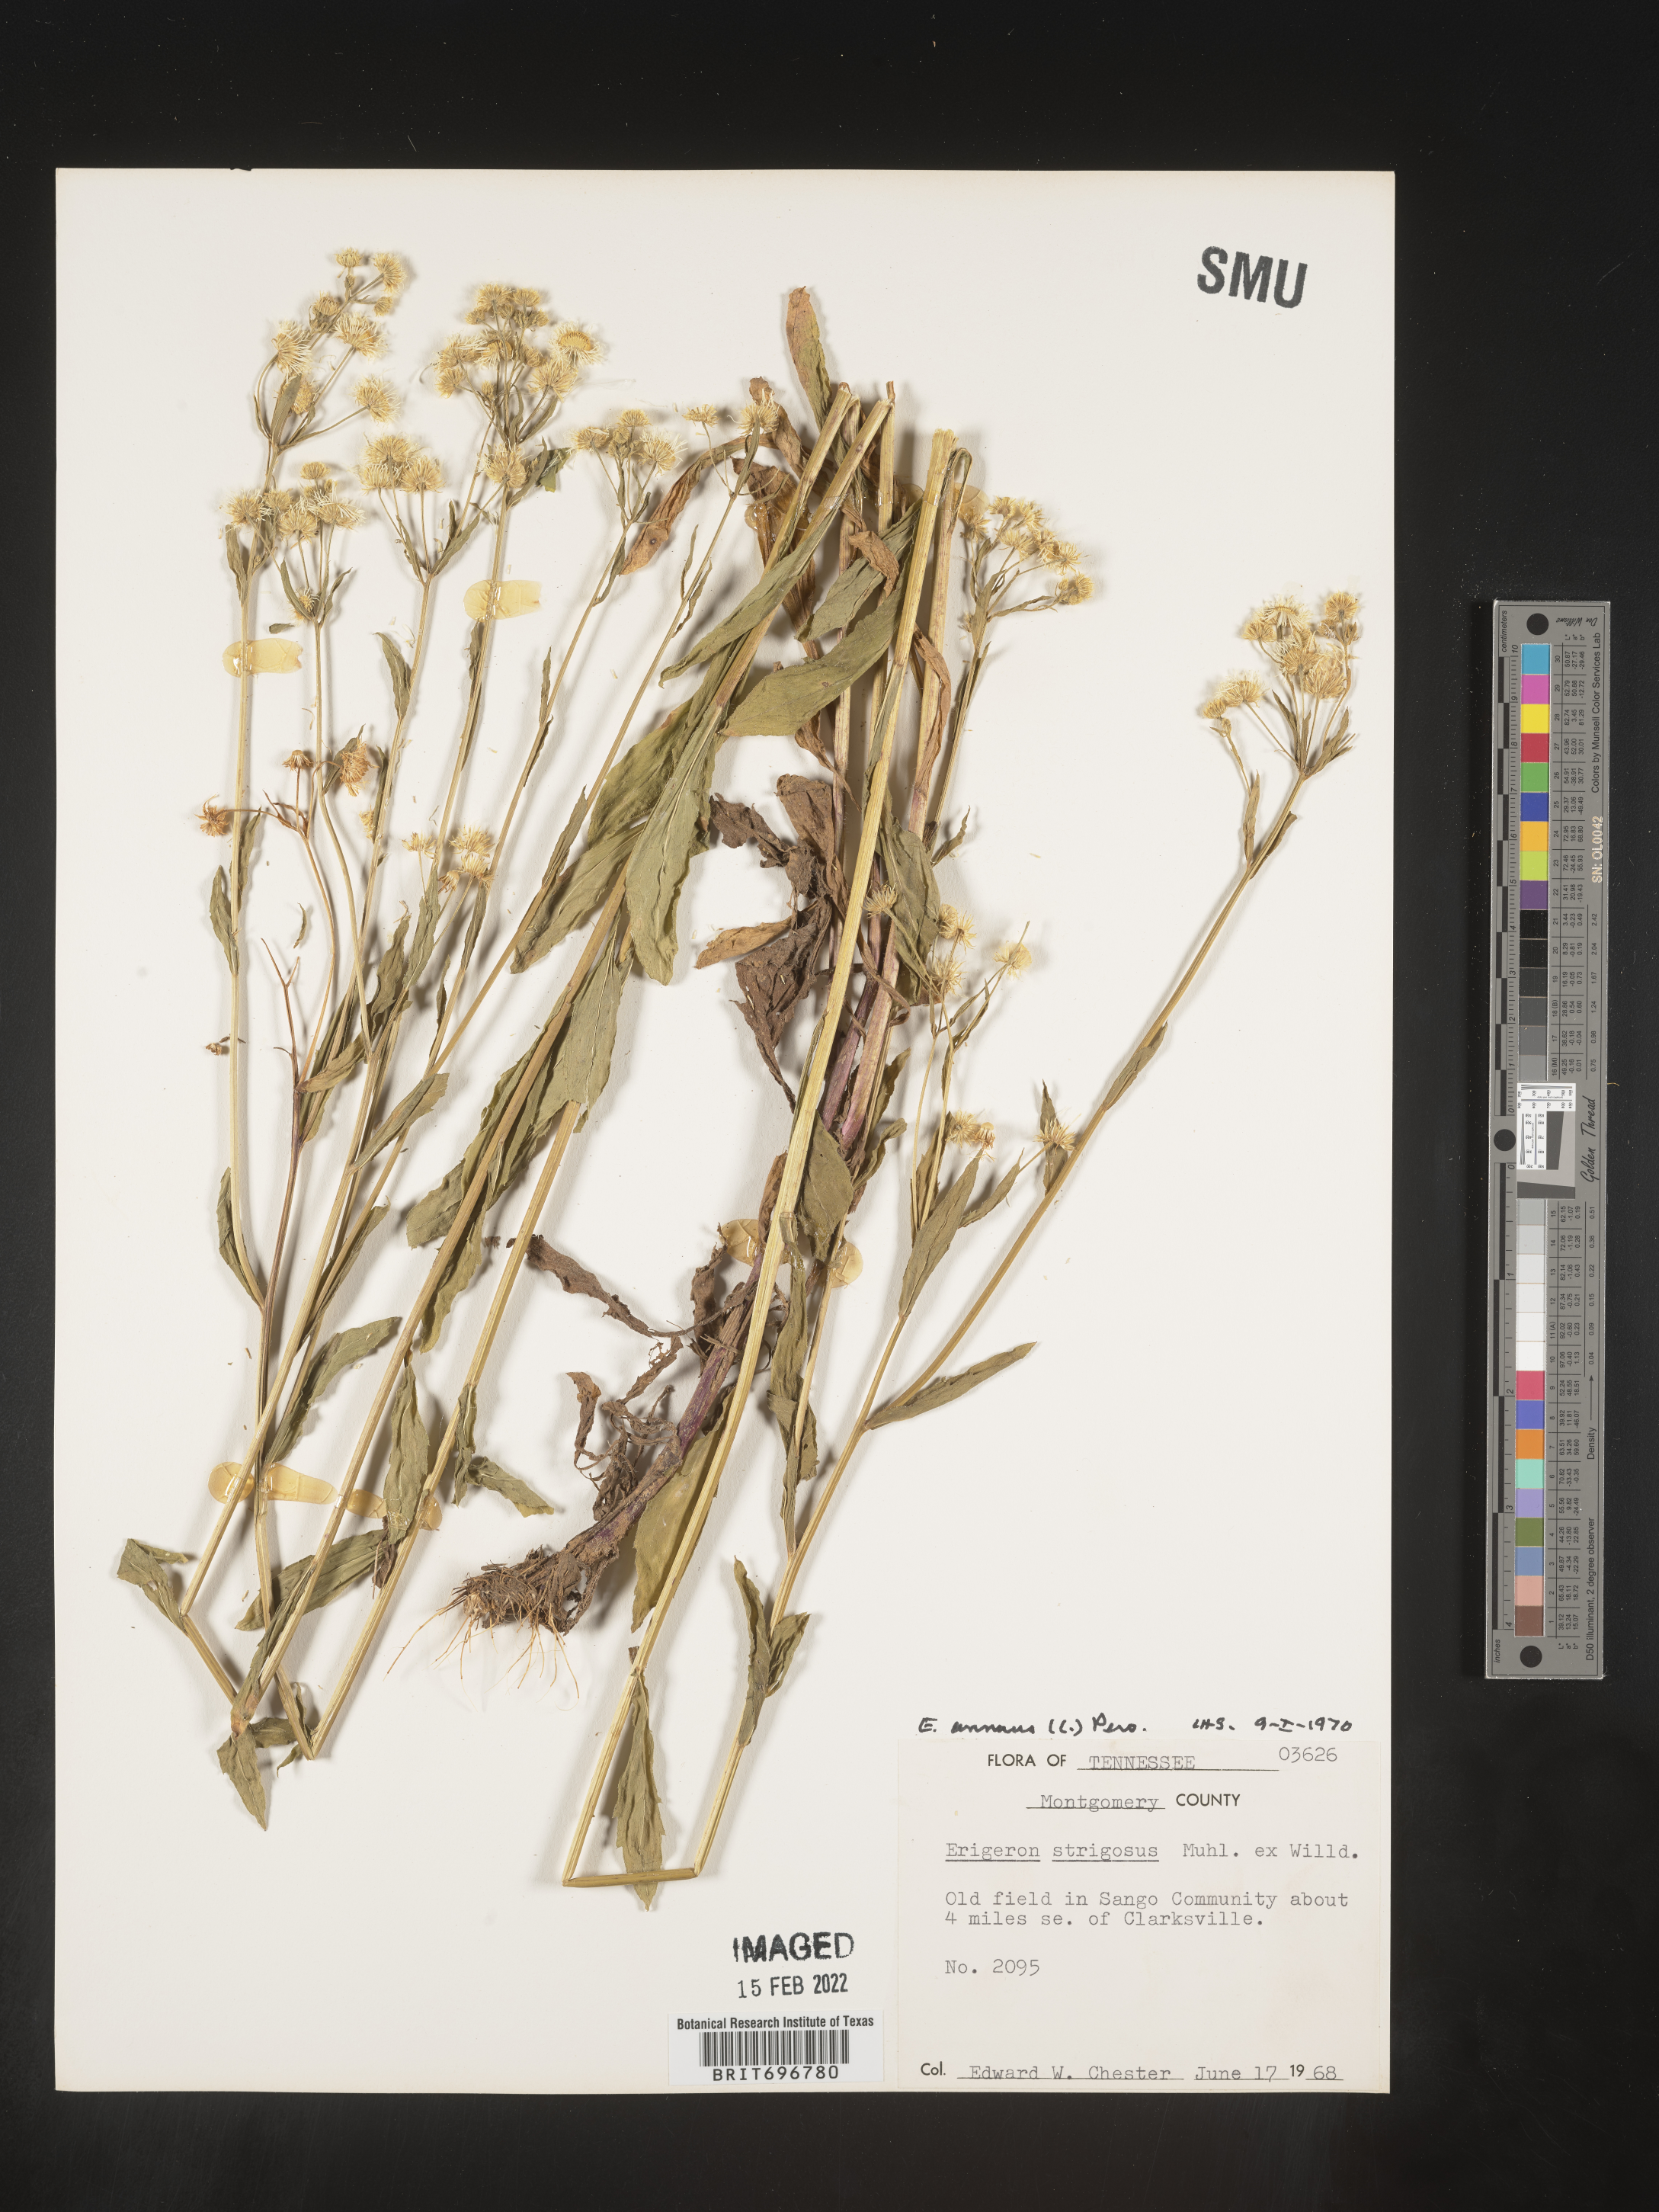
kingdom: Plantae
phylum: Tracheophyta
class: Magnoliopsida
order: Asterales
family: Asteraceae
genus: Erigeron
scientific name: Erigeron annuus
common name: Tall fleabane
